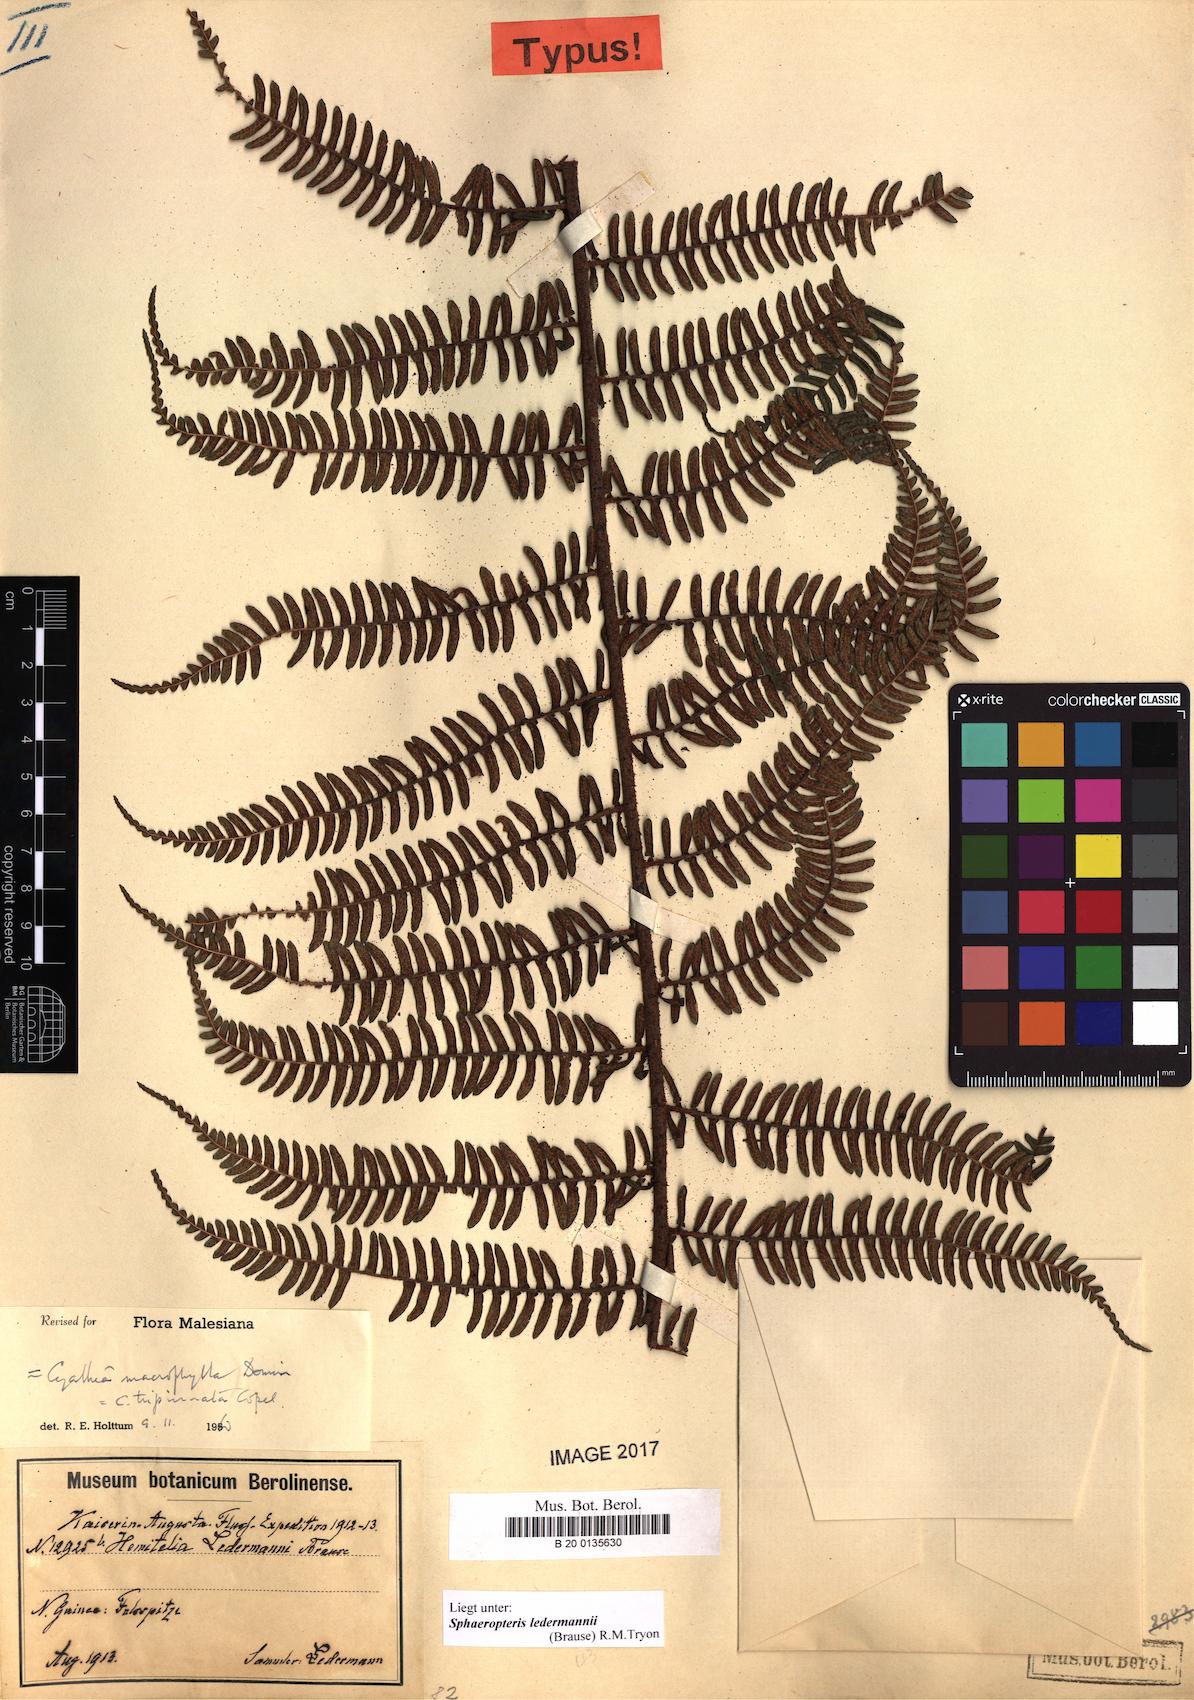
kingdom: Plantae
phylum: Tracheophyta
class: Polypodiopsida
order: Cyatheales
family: Cyatheaceae
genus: Sphaeropteris
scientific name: Sphaeropteris ledermannii
